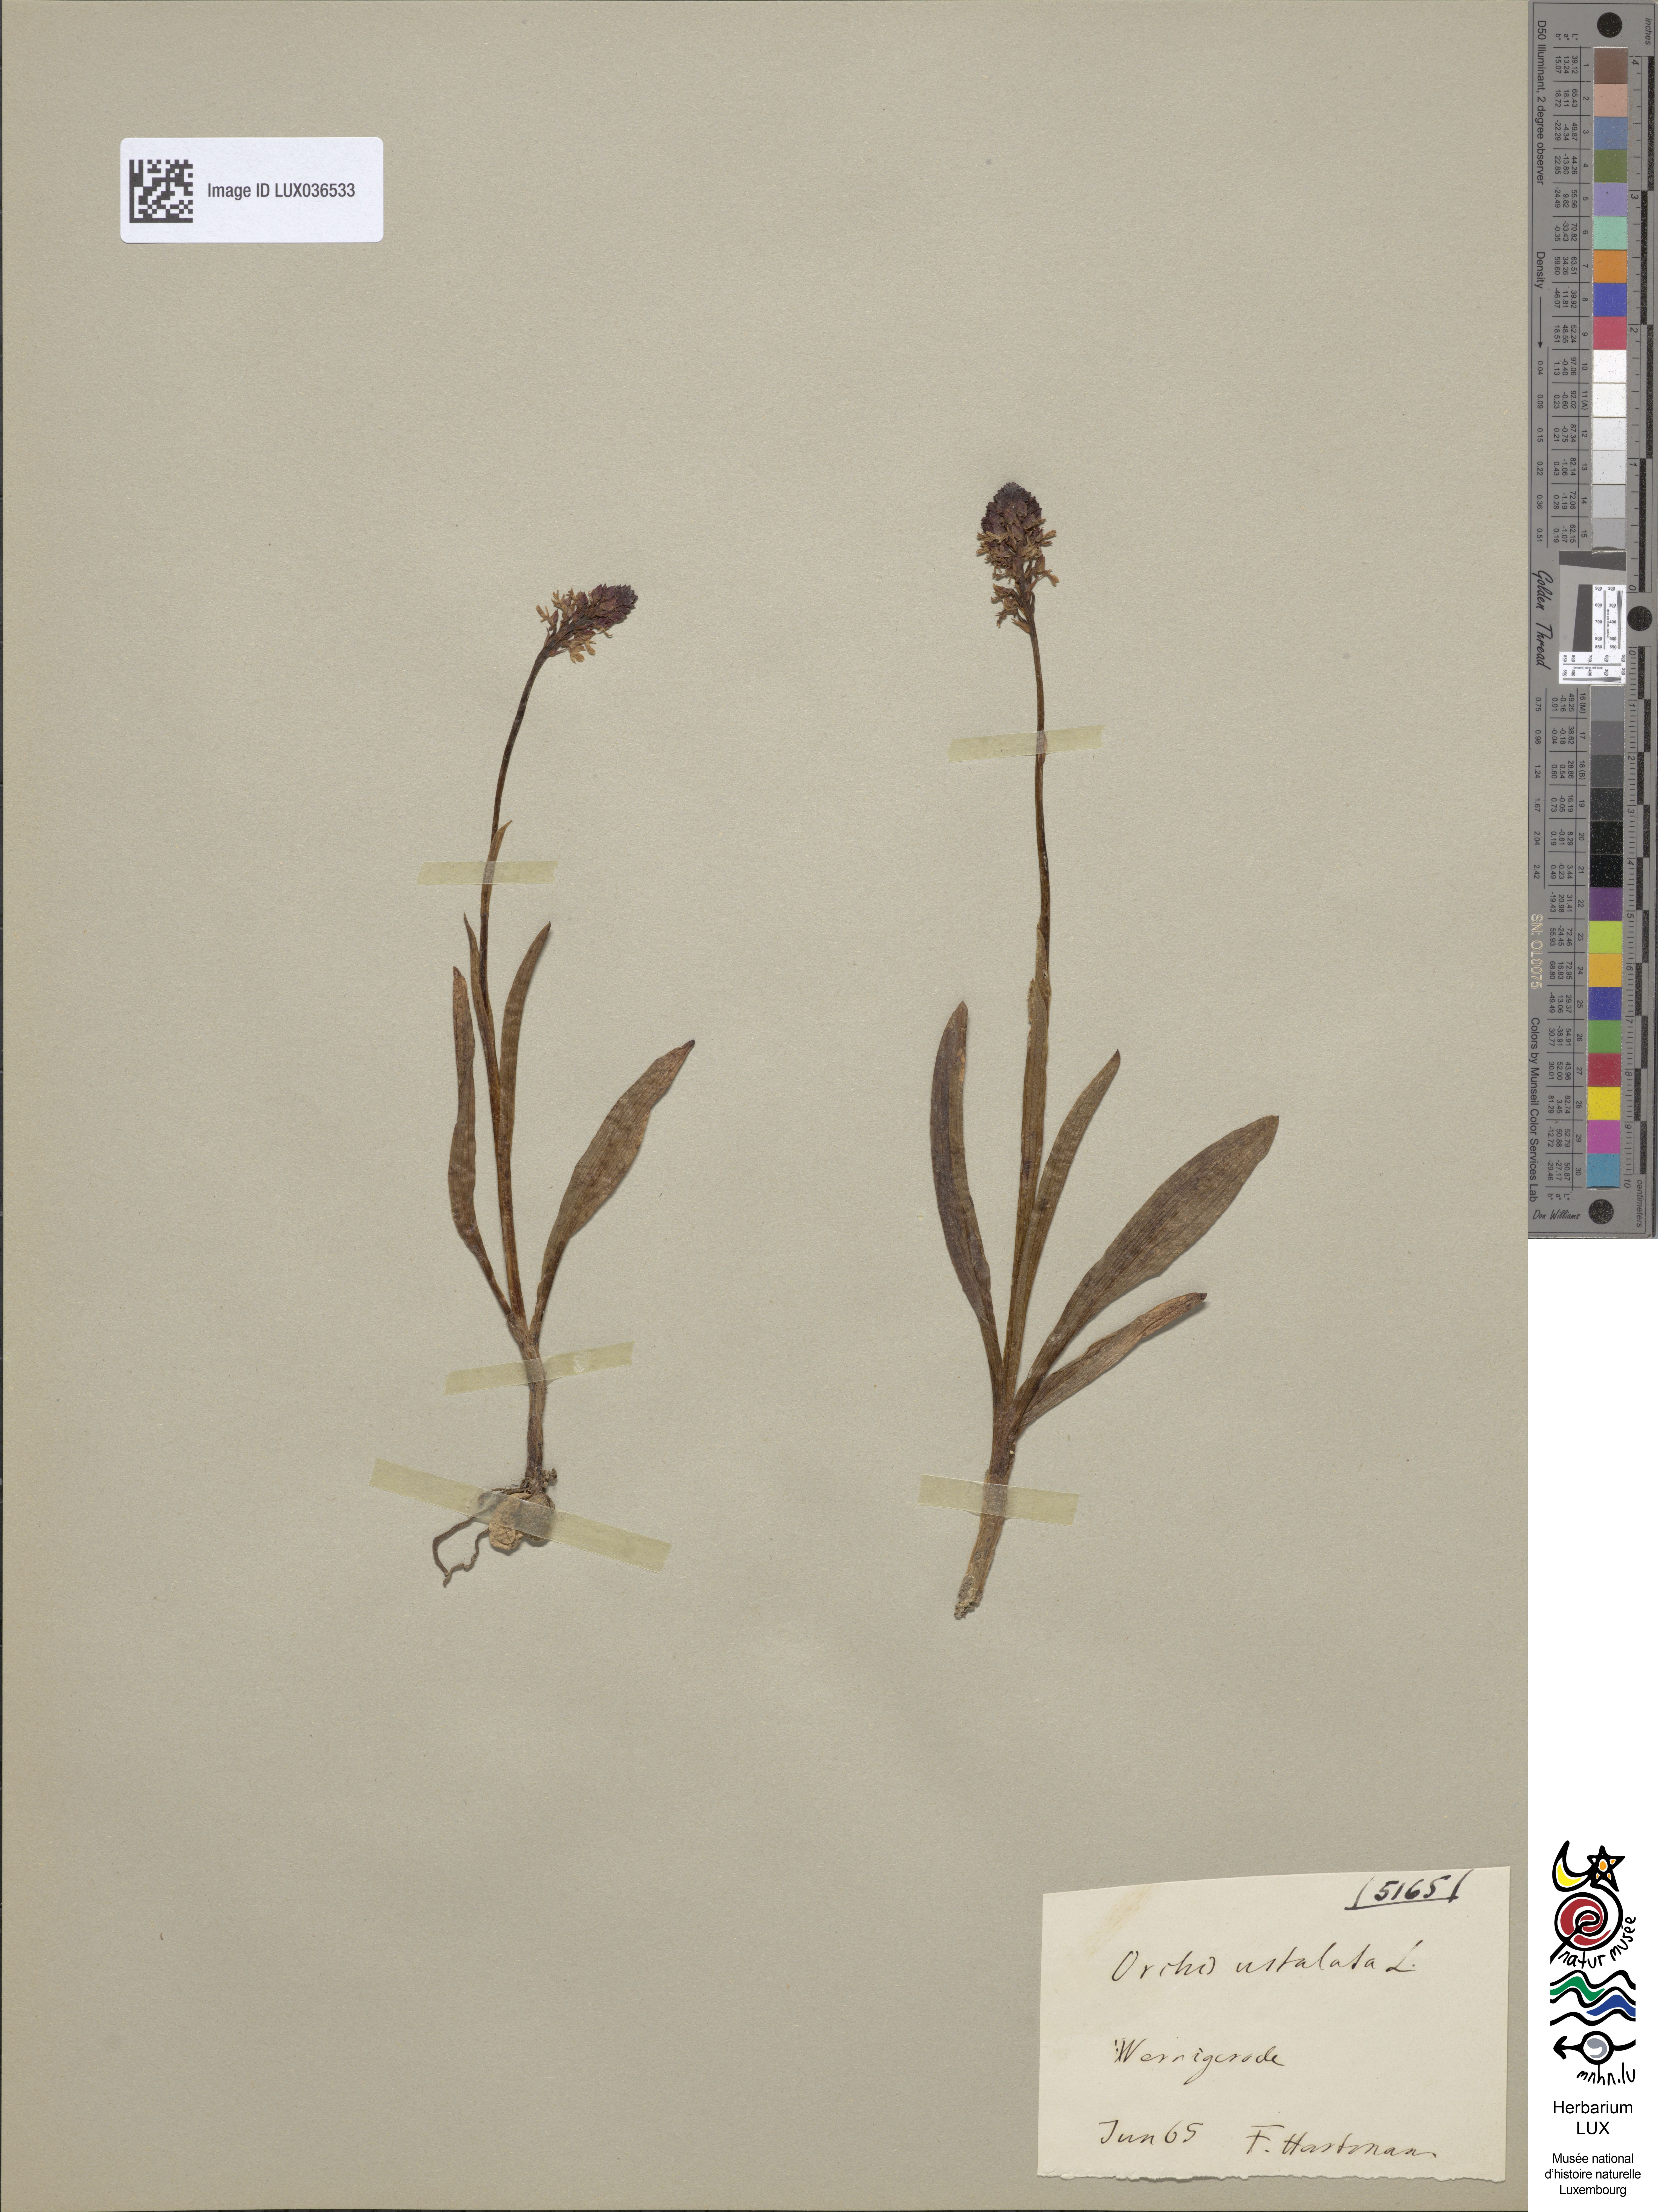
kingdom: Plantae
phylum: Tracheophyta
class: Liliopsida
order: Asparagales
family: Orchidaceae
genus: Neotinea
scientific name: Neotinea ustulata
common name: Burnt orchid
